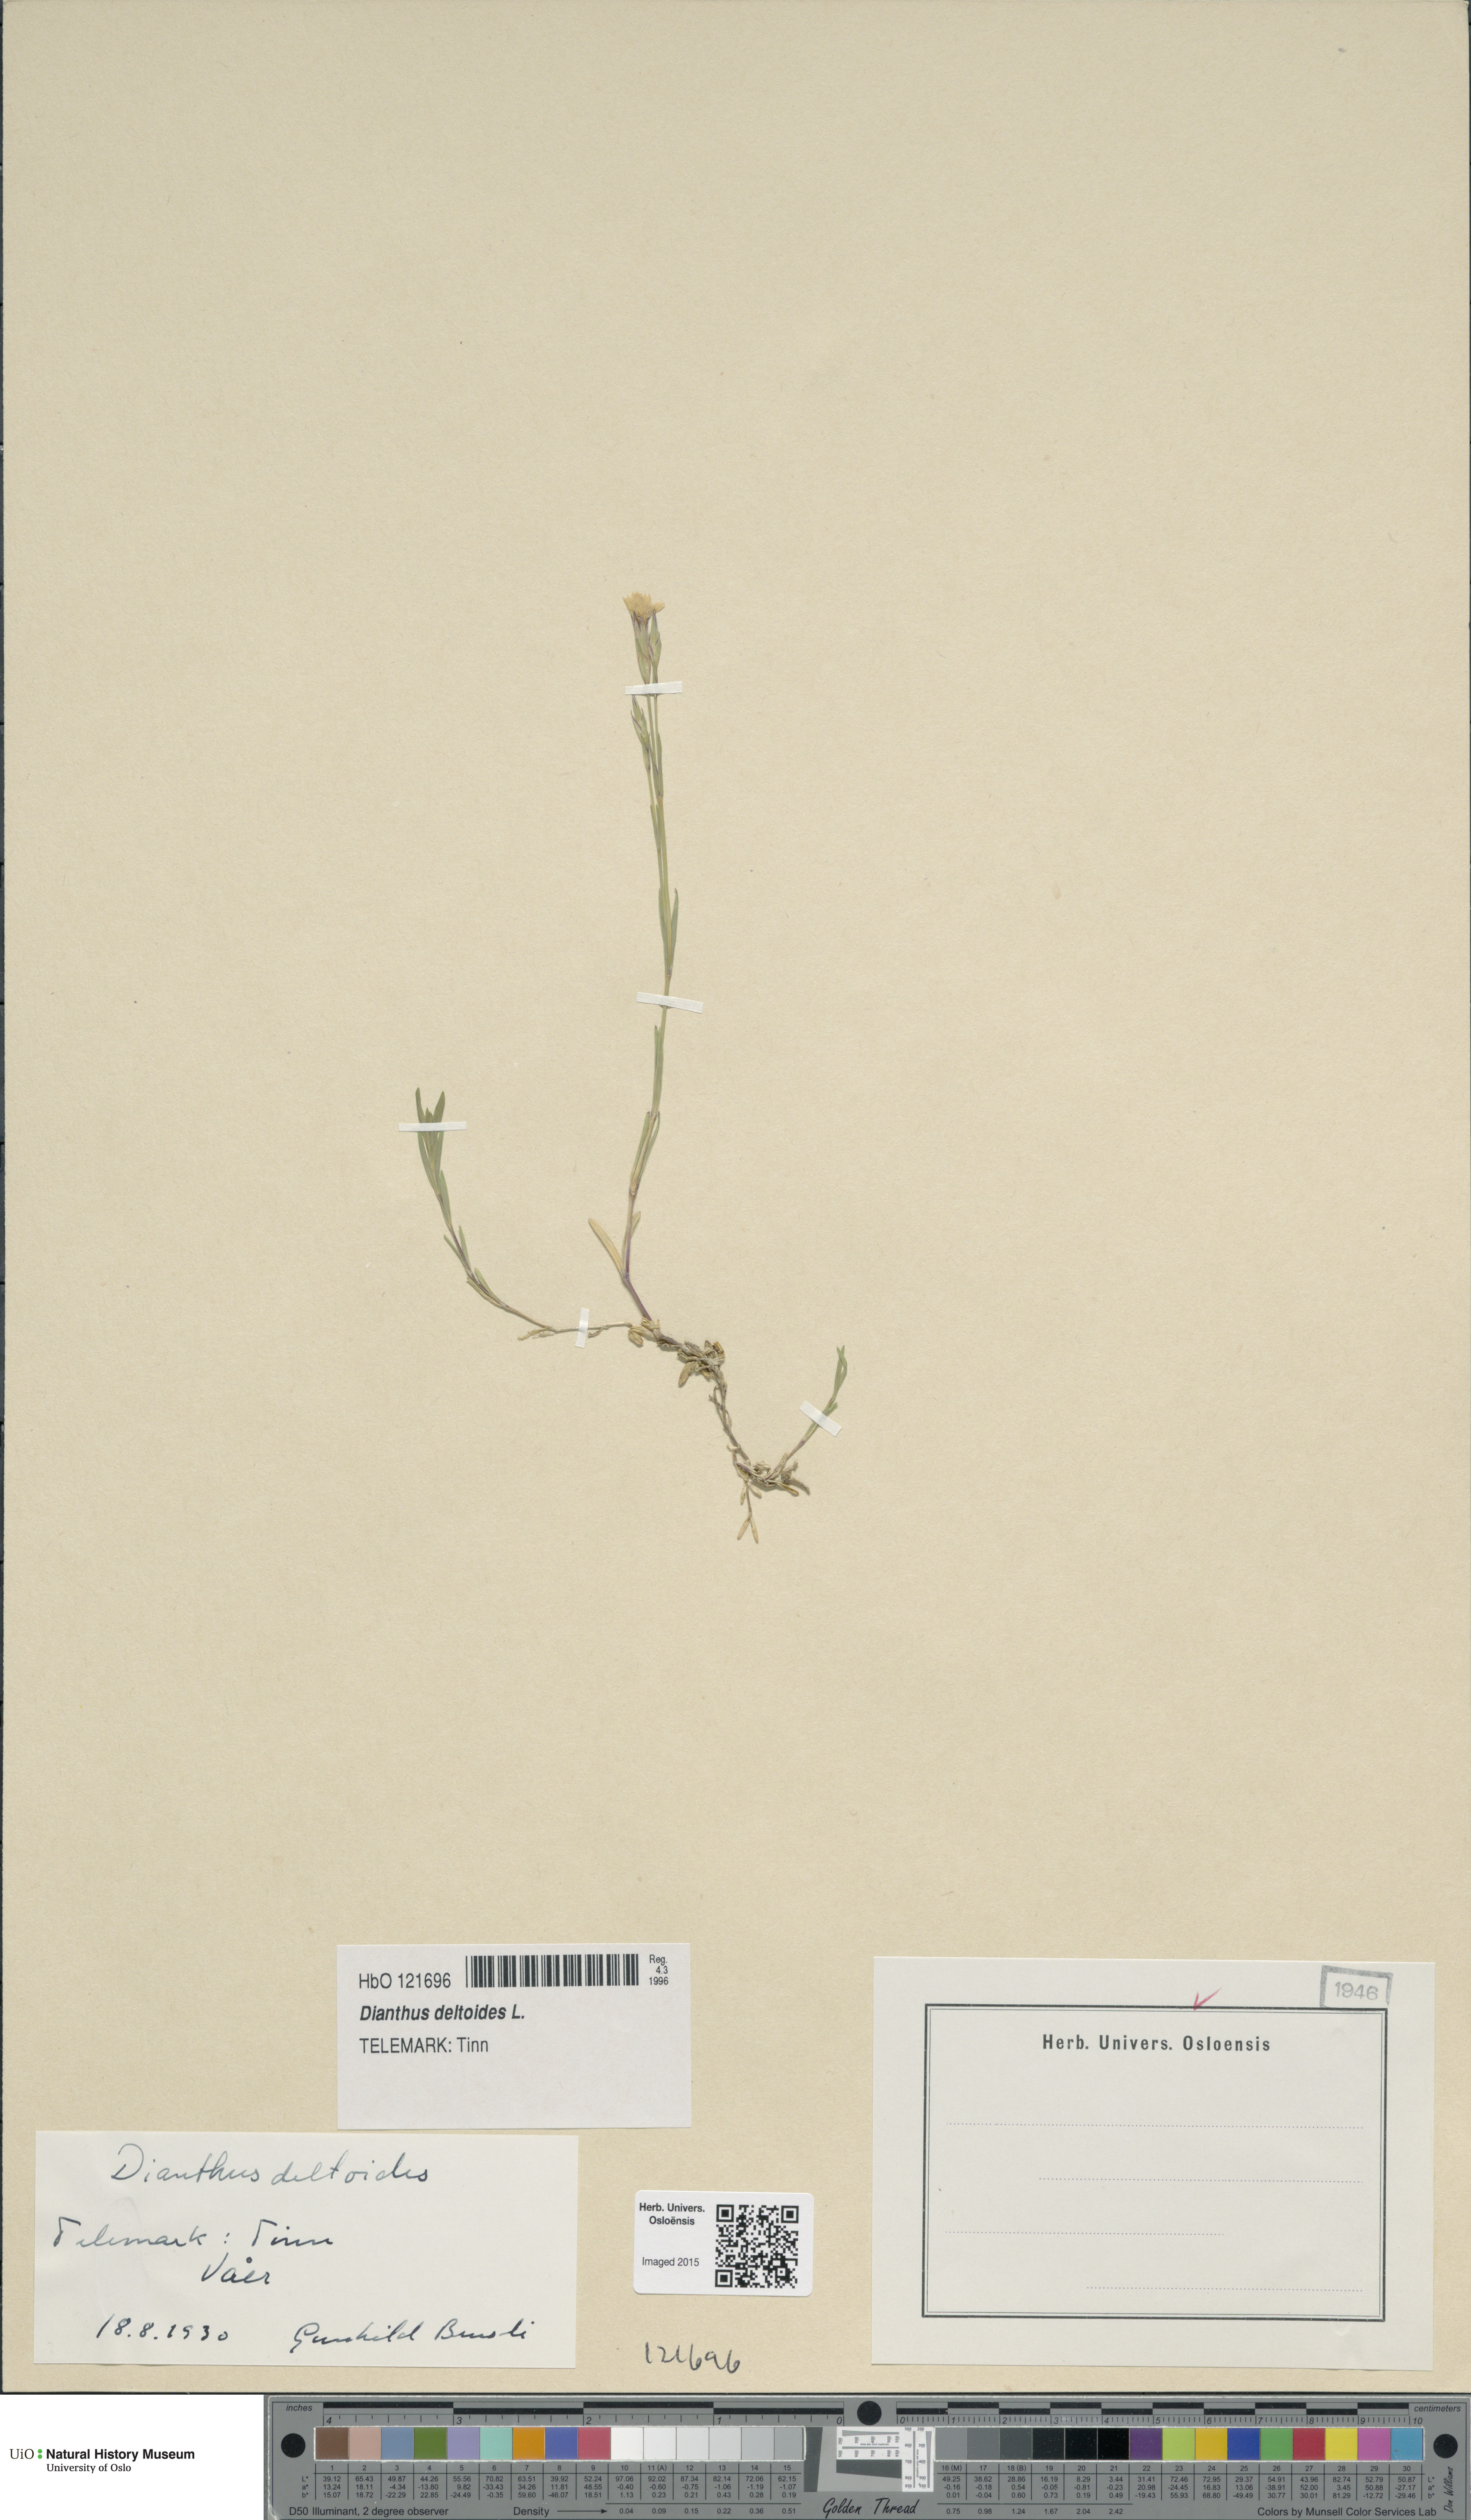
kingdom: Plantae
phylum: Tracheophyta
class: Magnoliopsida
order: Caryophyllales
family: Caryophyllaceae
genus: Dianthus
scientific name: Dianthus deltoides
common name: Maiden pink
